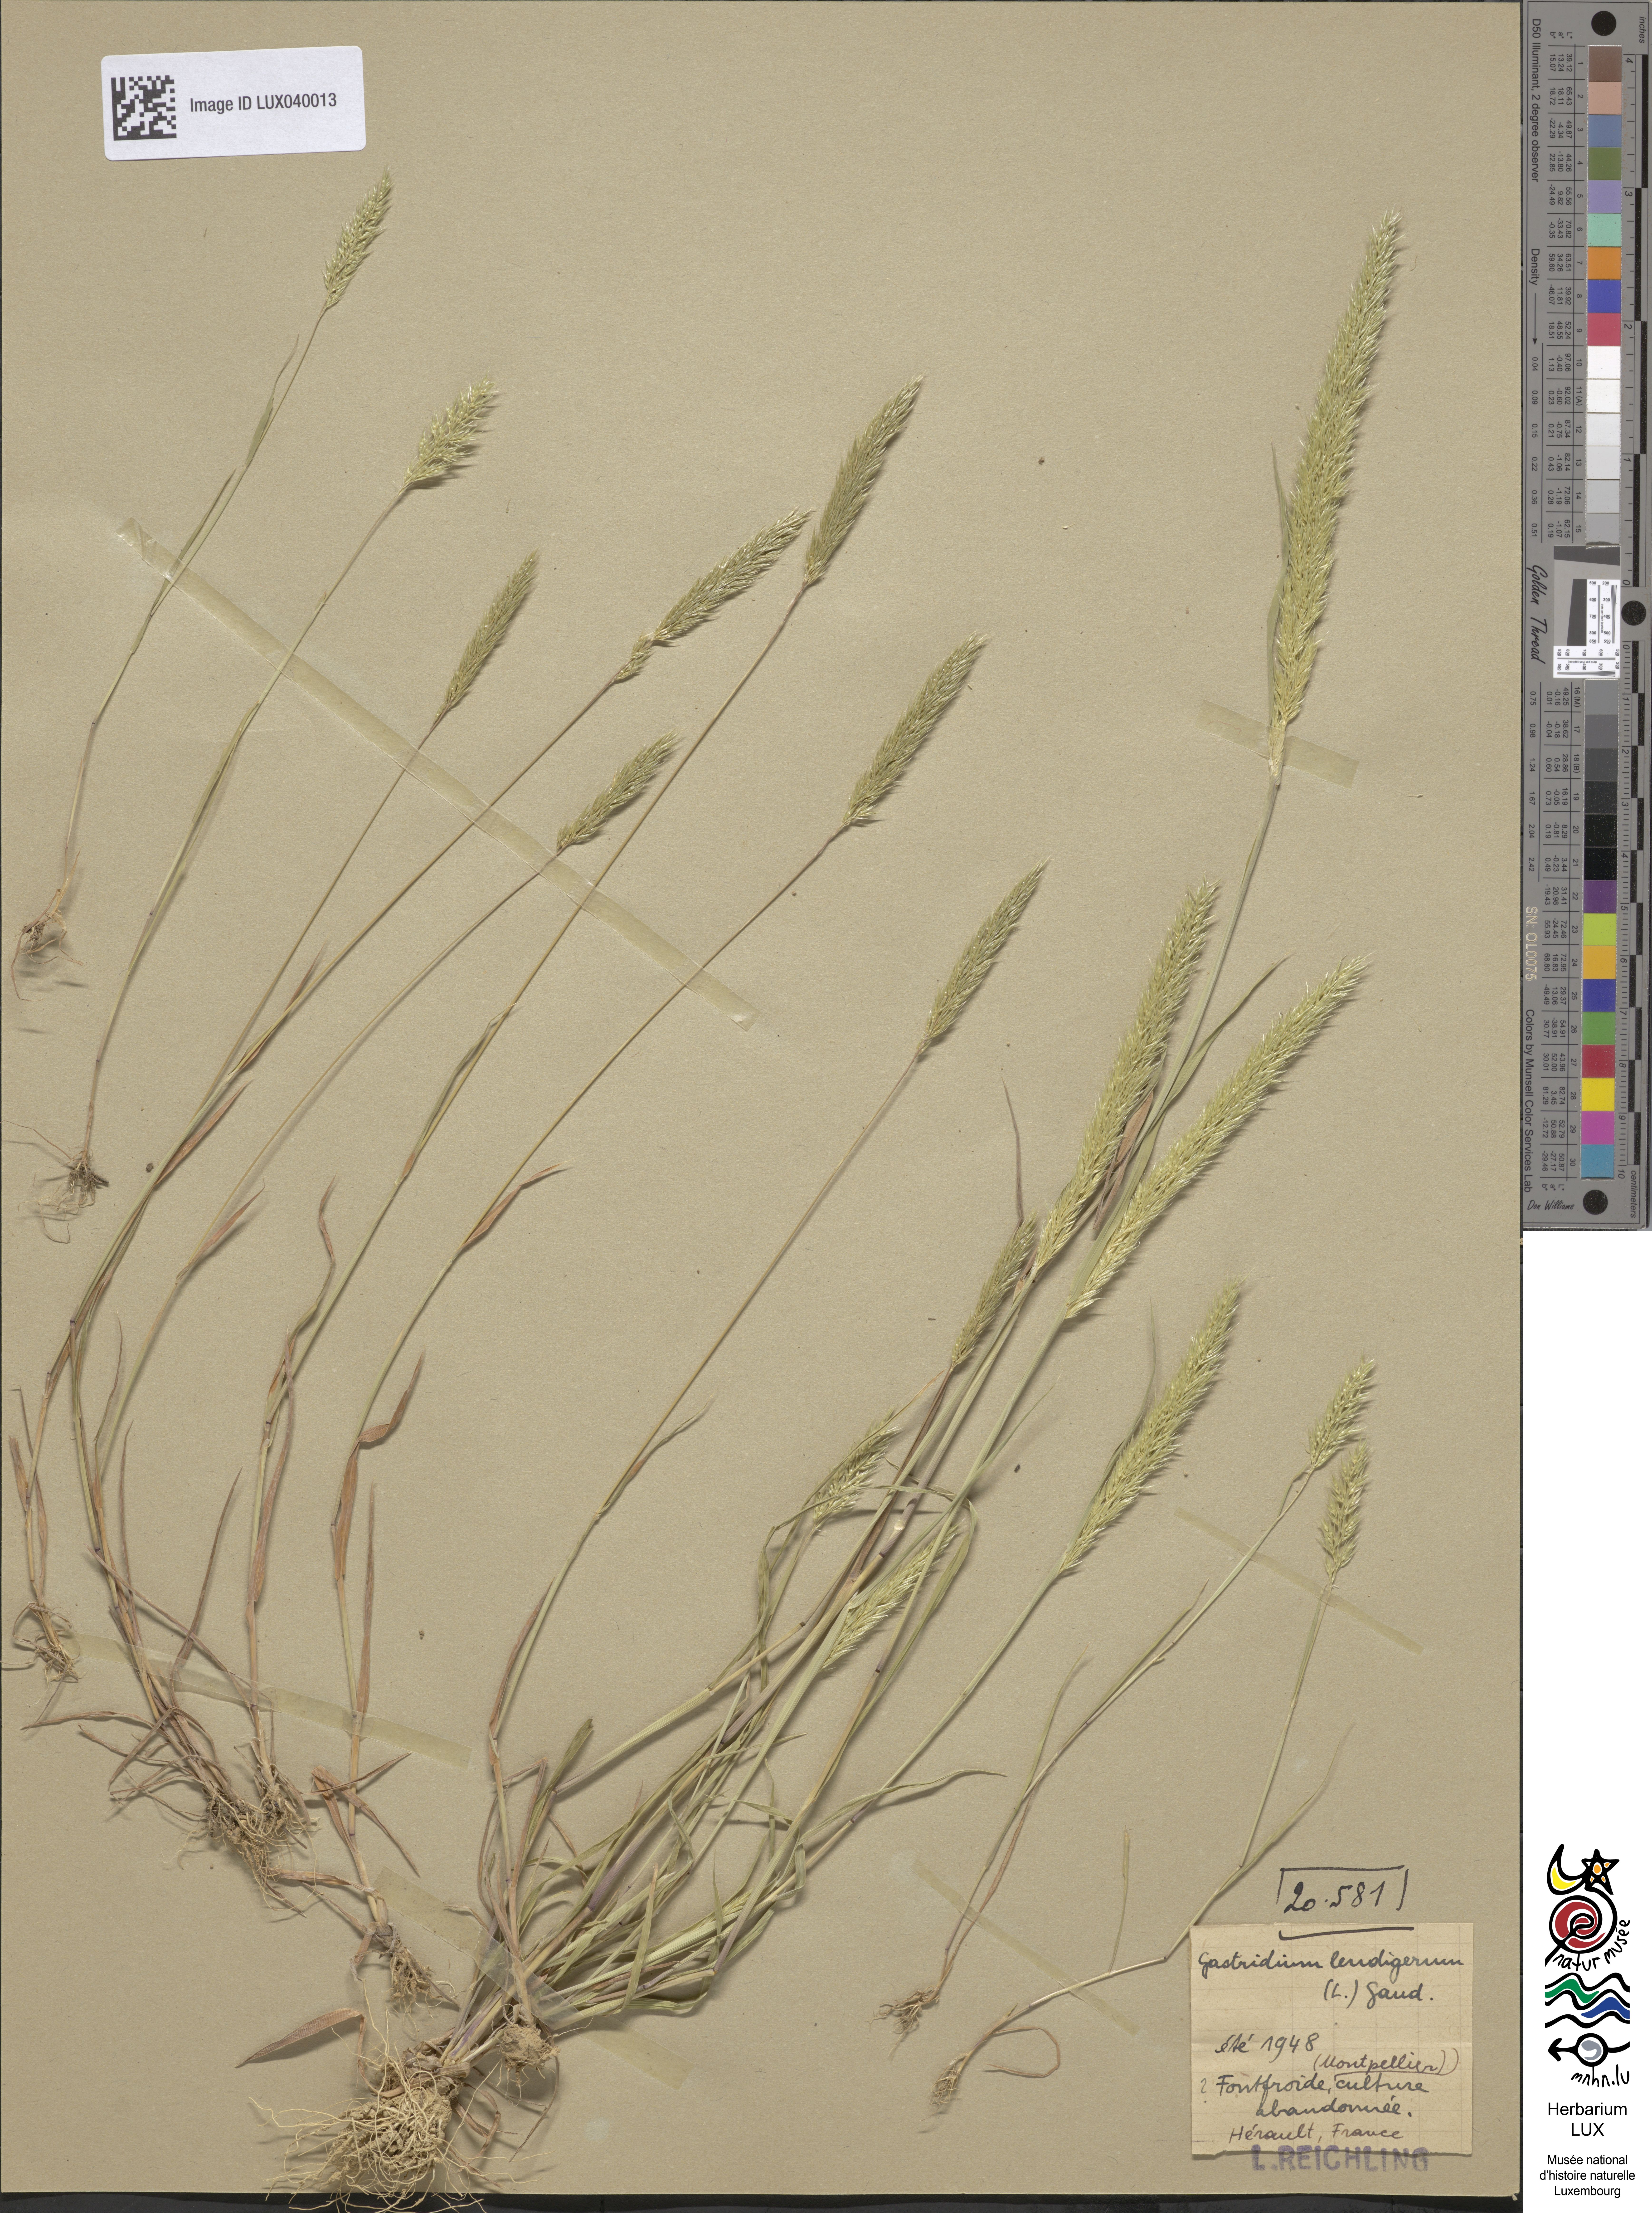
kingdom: Plantae
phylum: Tracheophyta
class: Liliopsida
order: Poales
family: Poaceae
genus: Gastridium
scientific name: Gastridium ventricosum
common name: Nit-grass
